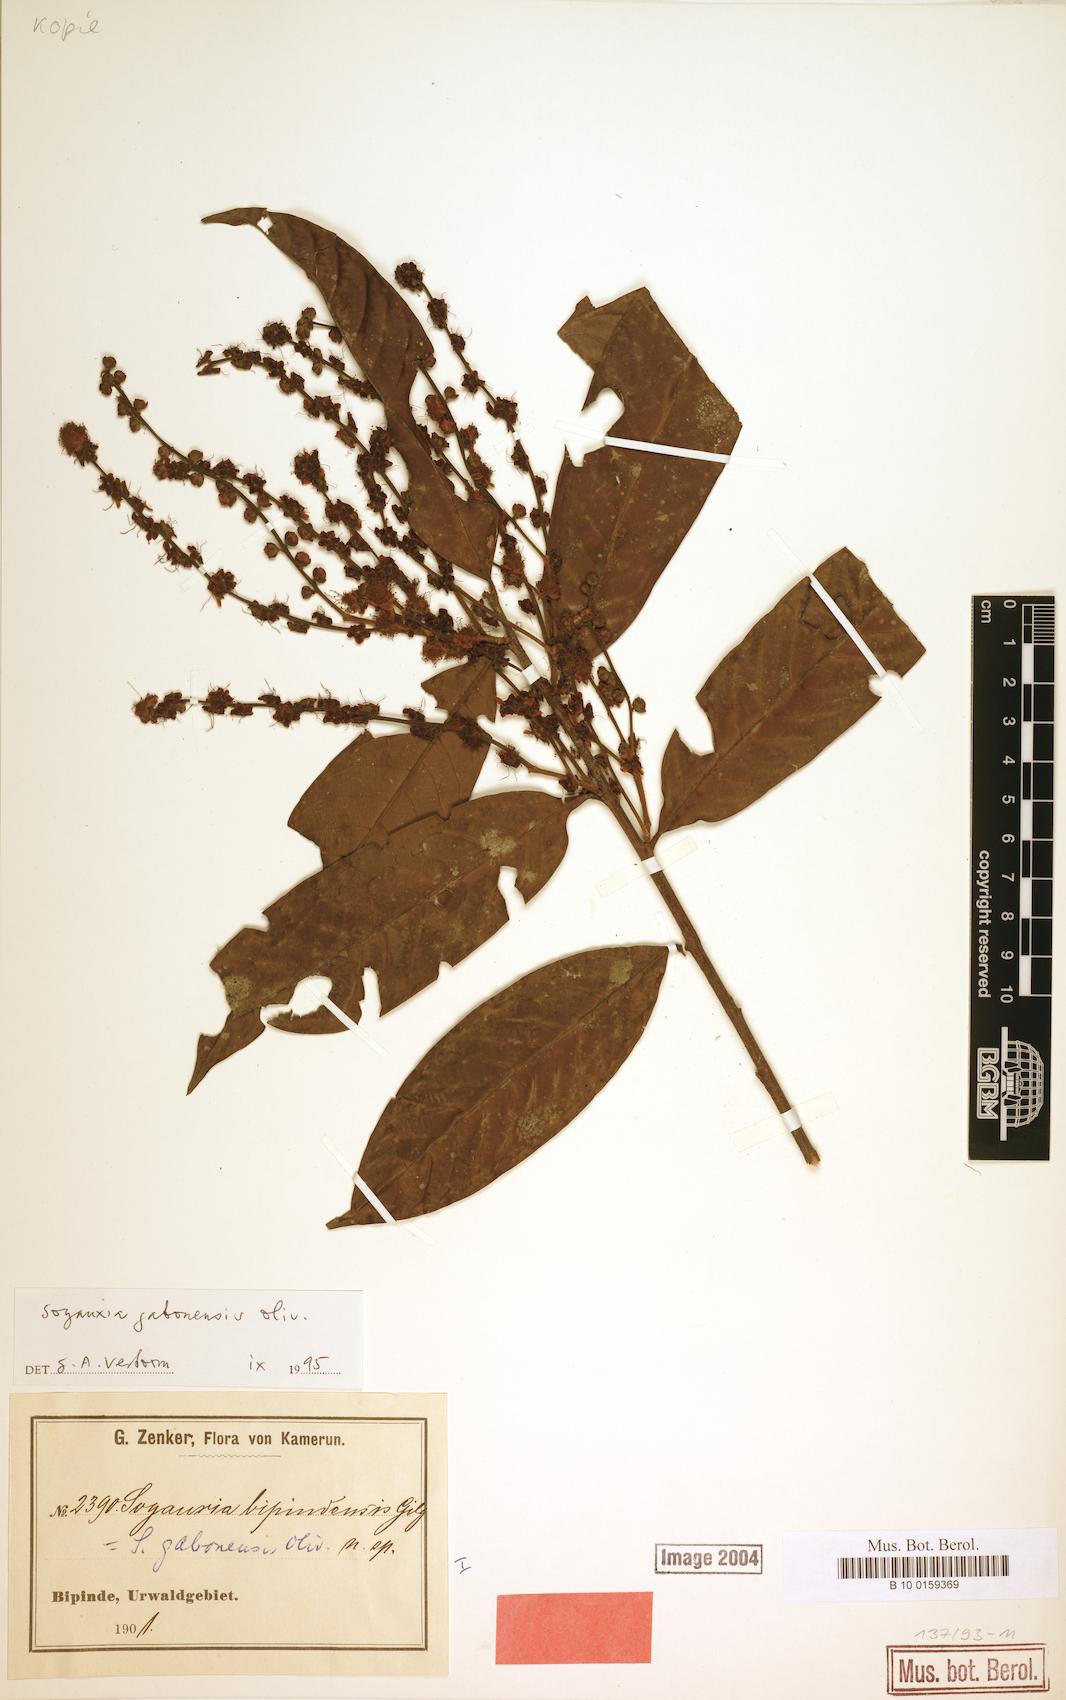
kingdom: Plantae
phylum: Tracheophyta
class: Magnoliopsida
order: Saxifragales
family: Peridiscaceae
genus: Soyauxia
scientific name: Soyauxia gabonensis
